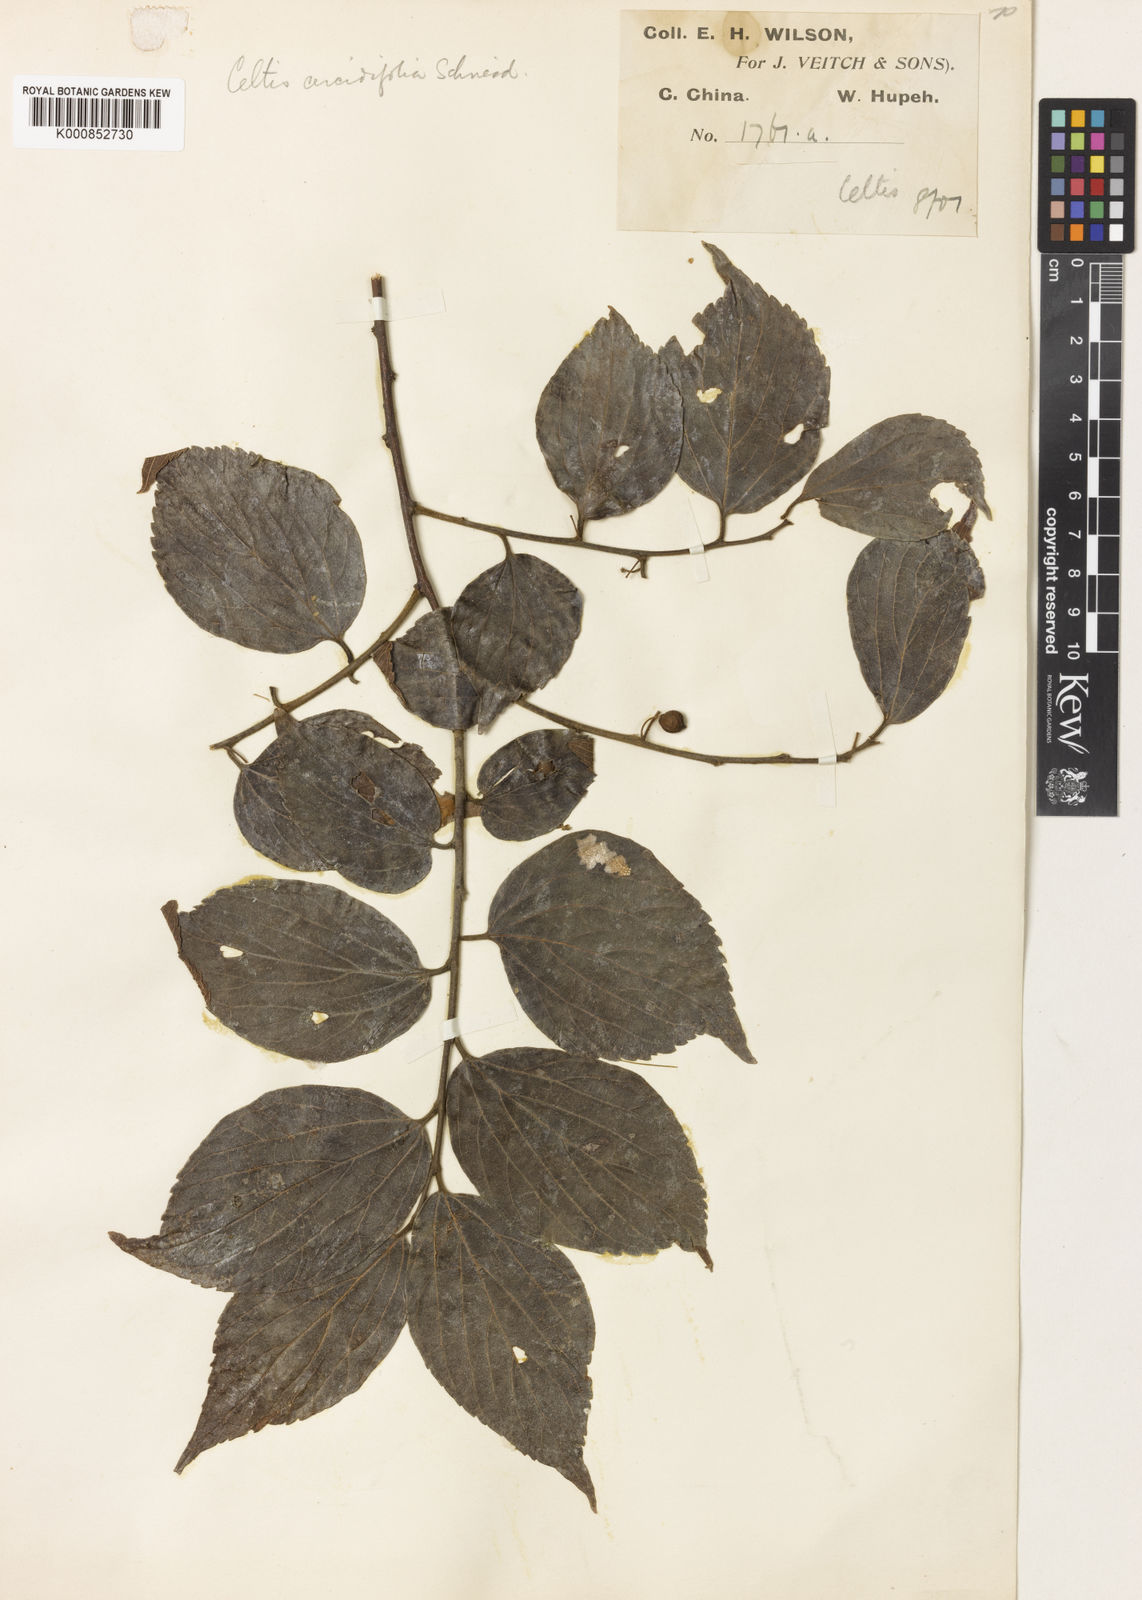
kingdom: Plantae
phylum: Tracheophyta
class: Magnoliopsida
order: Rosales
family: Cannabaceae
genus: Celtis
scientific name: Celtis sinensis
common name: Chinese hackberry
